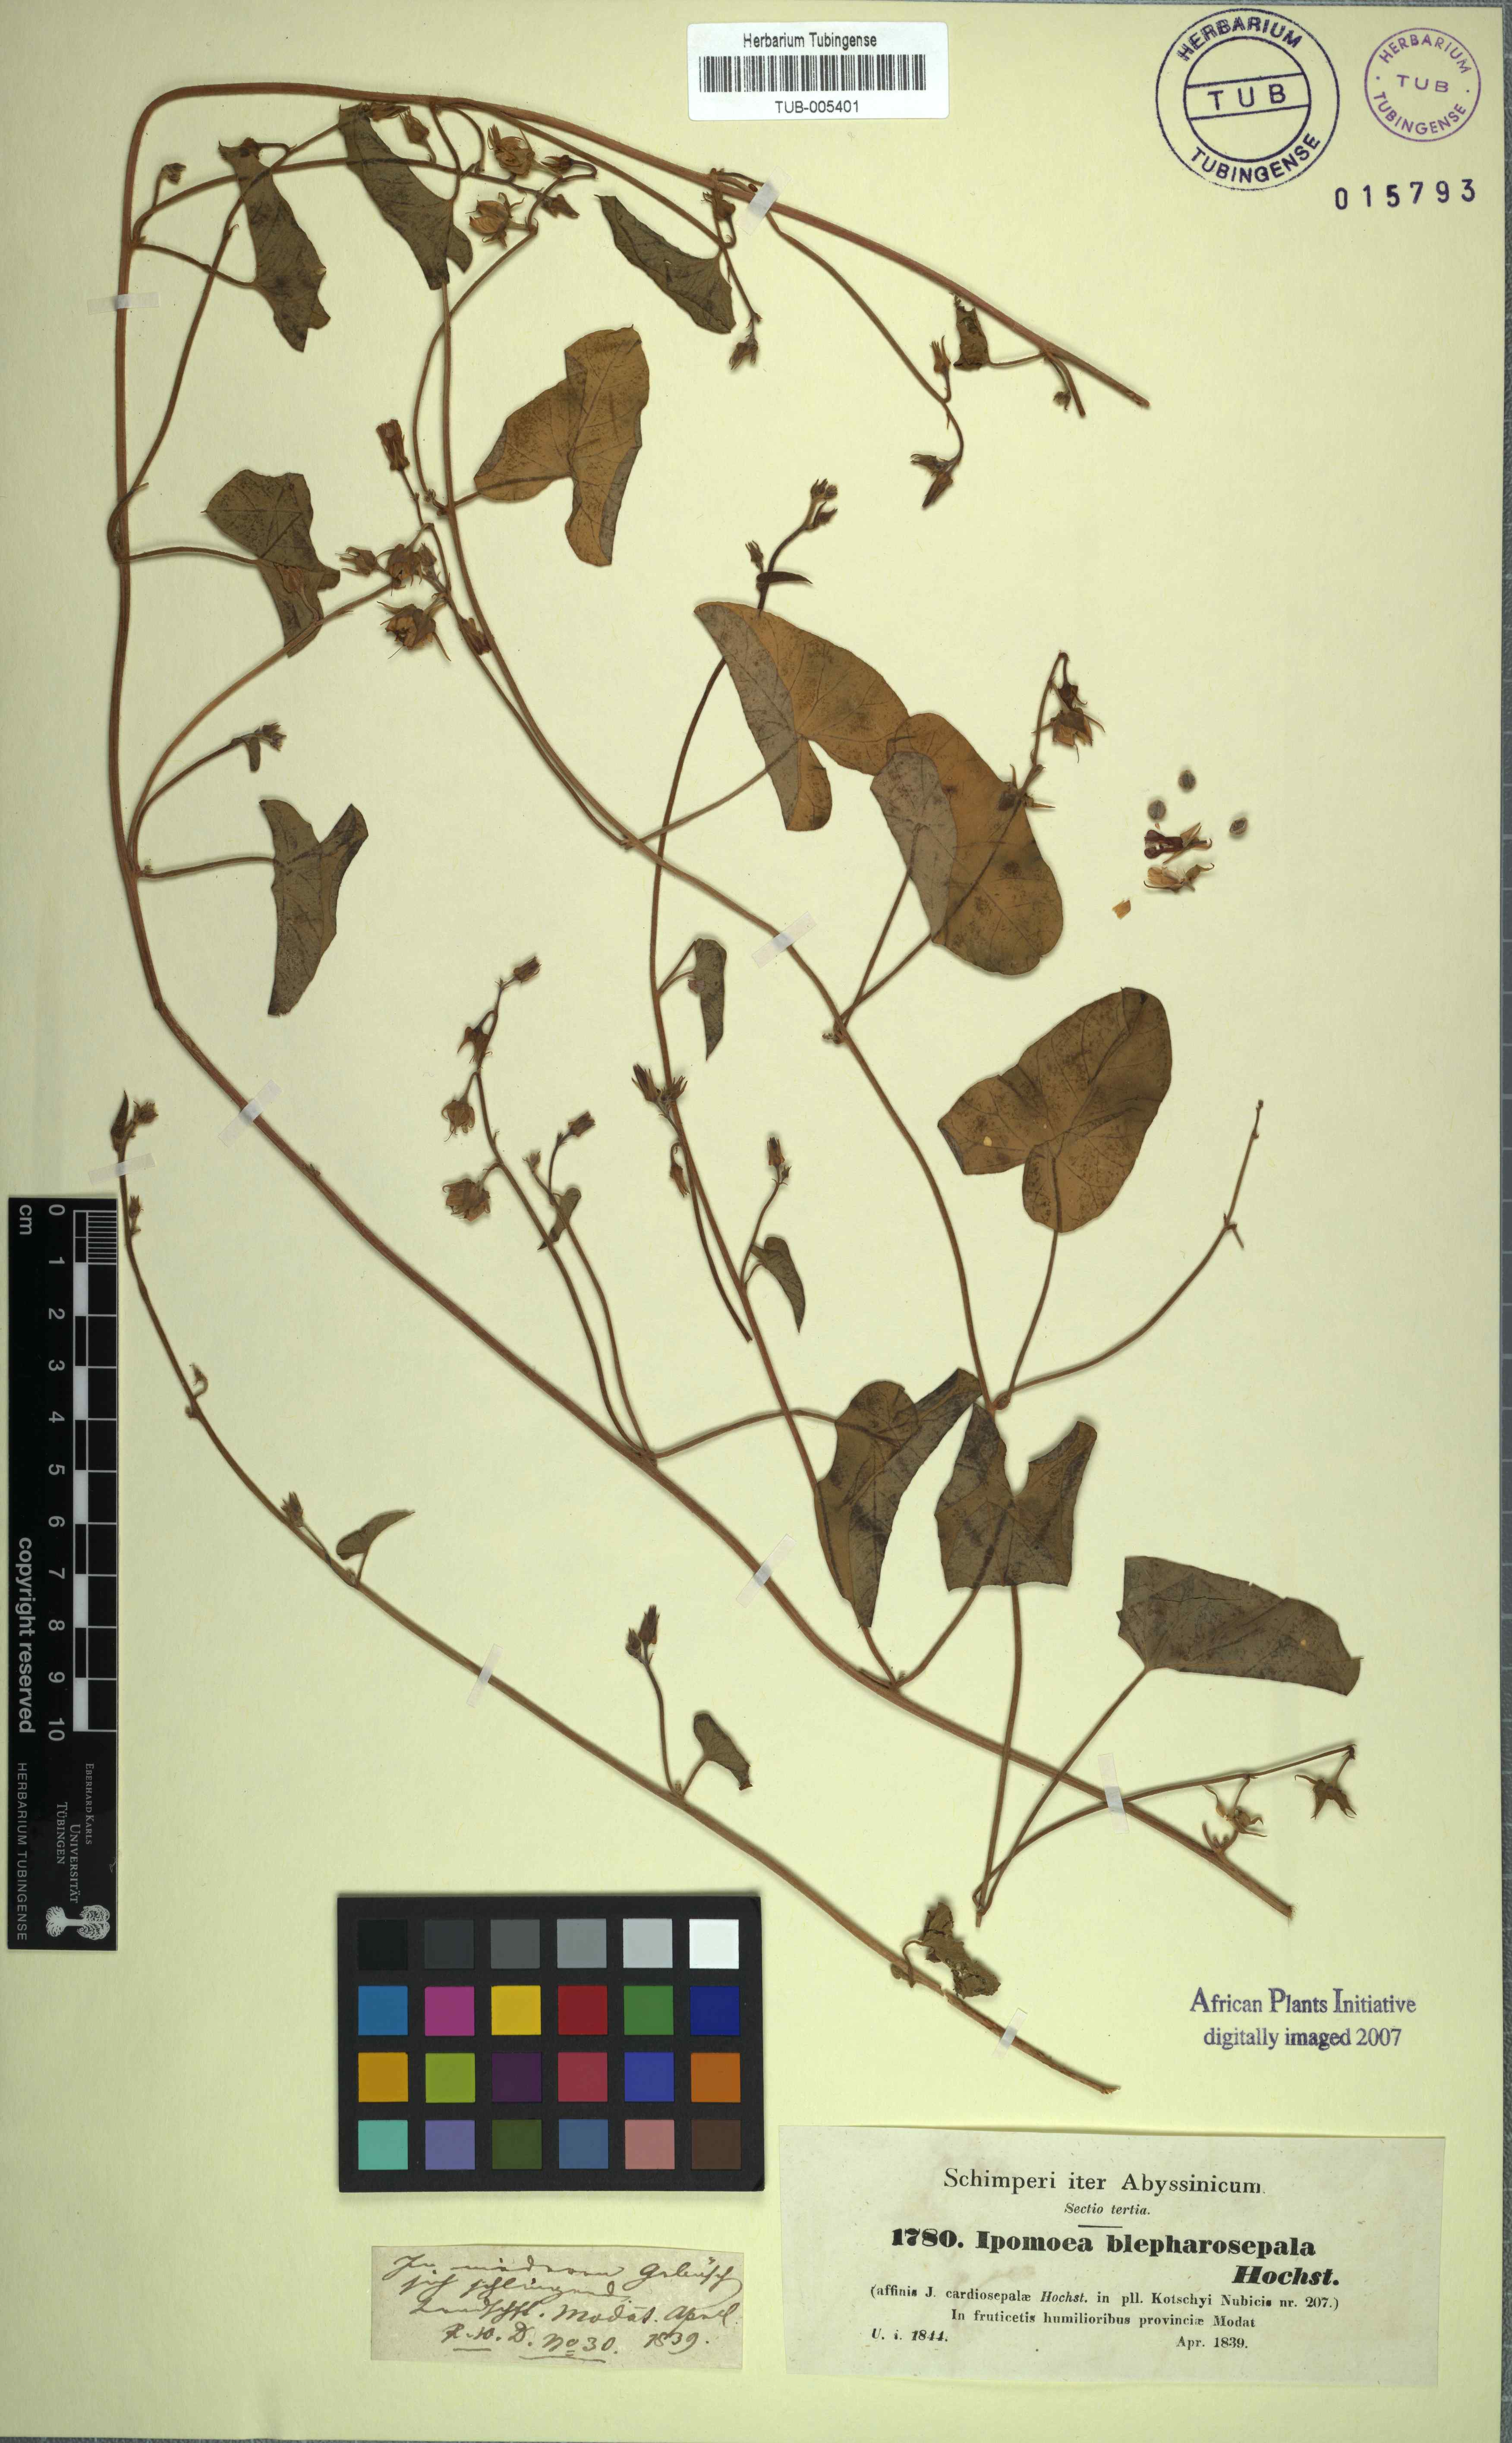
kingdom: Plantae
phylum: Tracheophyta
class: Magnoliopsida
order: Solanales
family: Convolvulaceae
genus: Ipomoea
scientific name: Ipomoea sinensis
